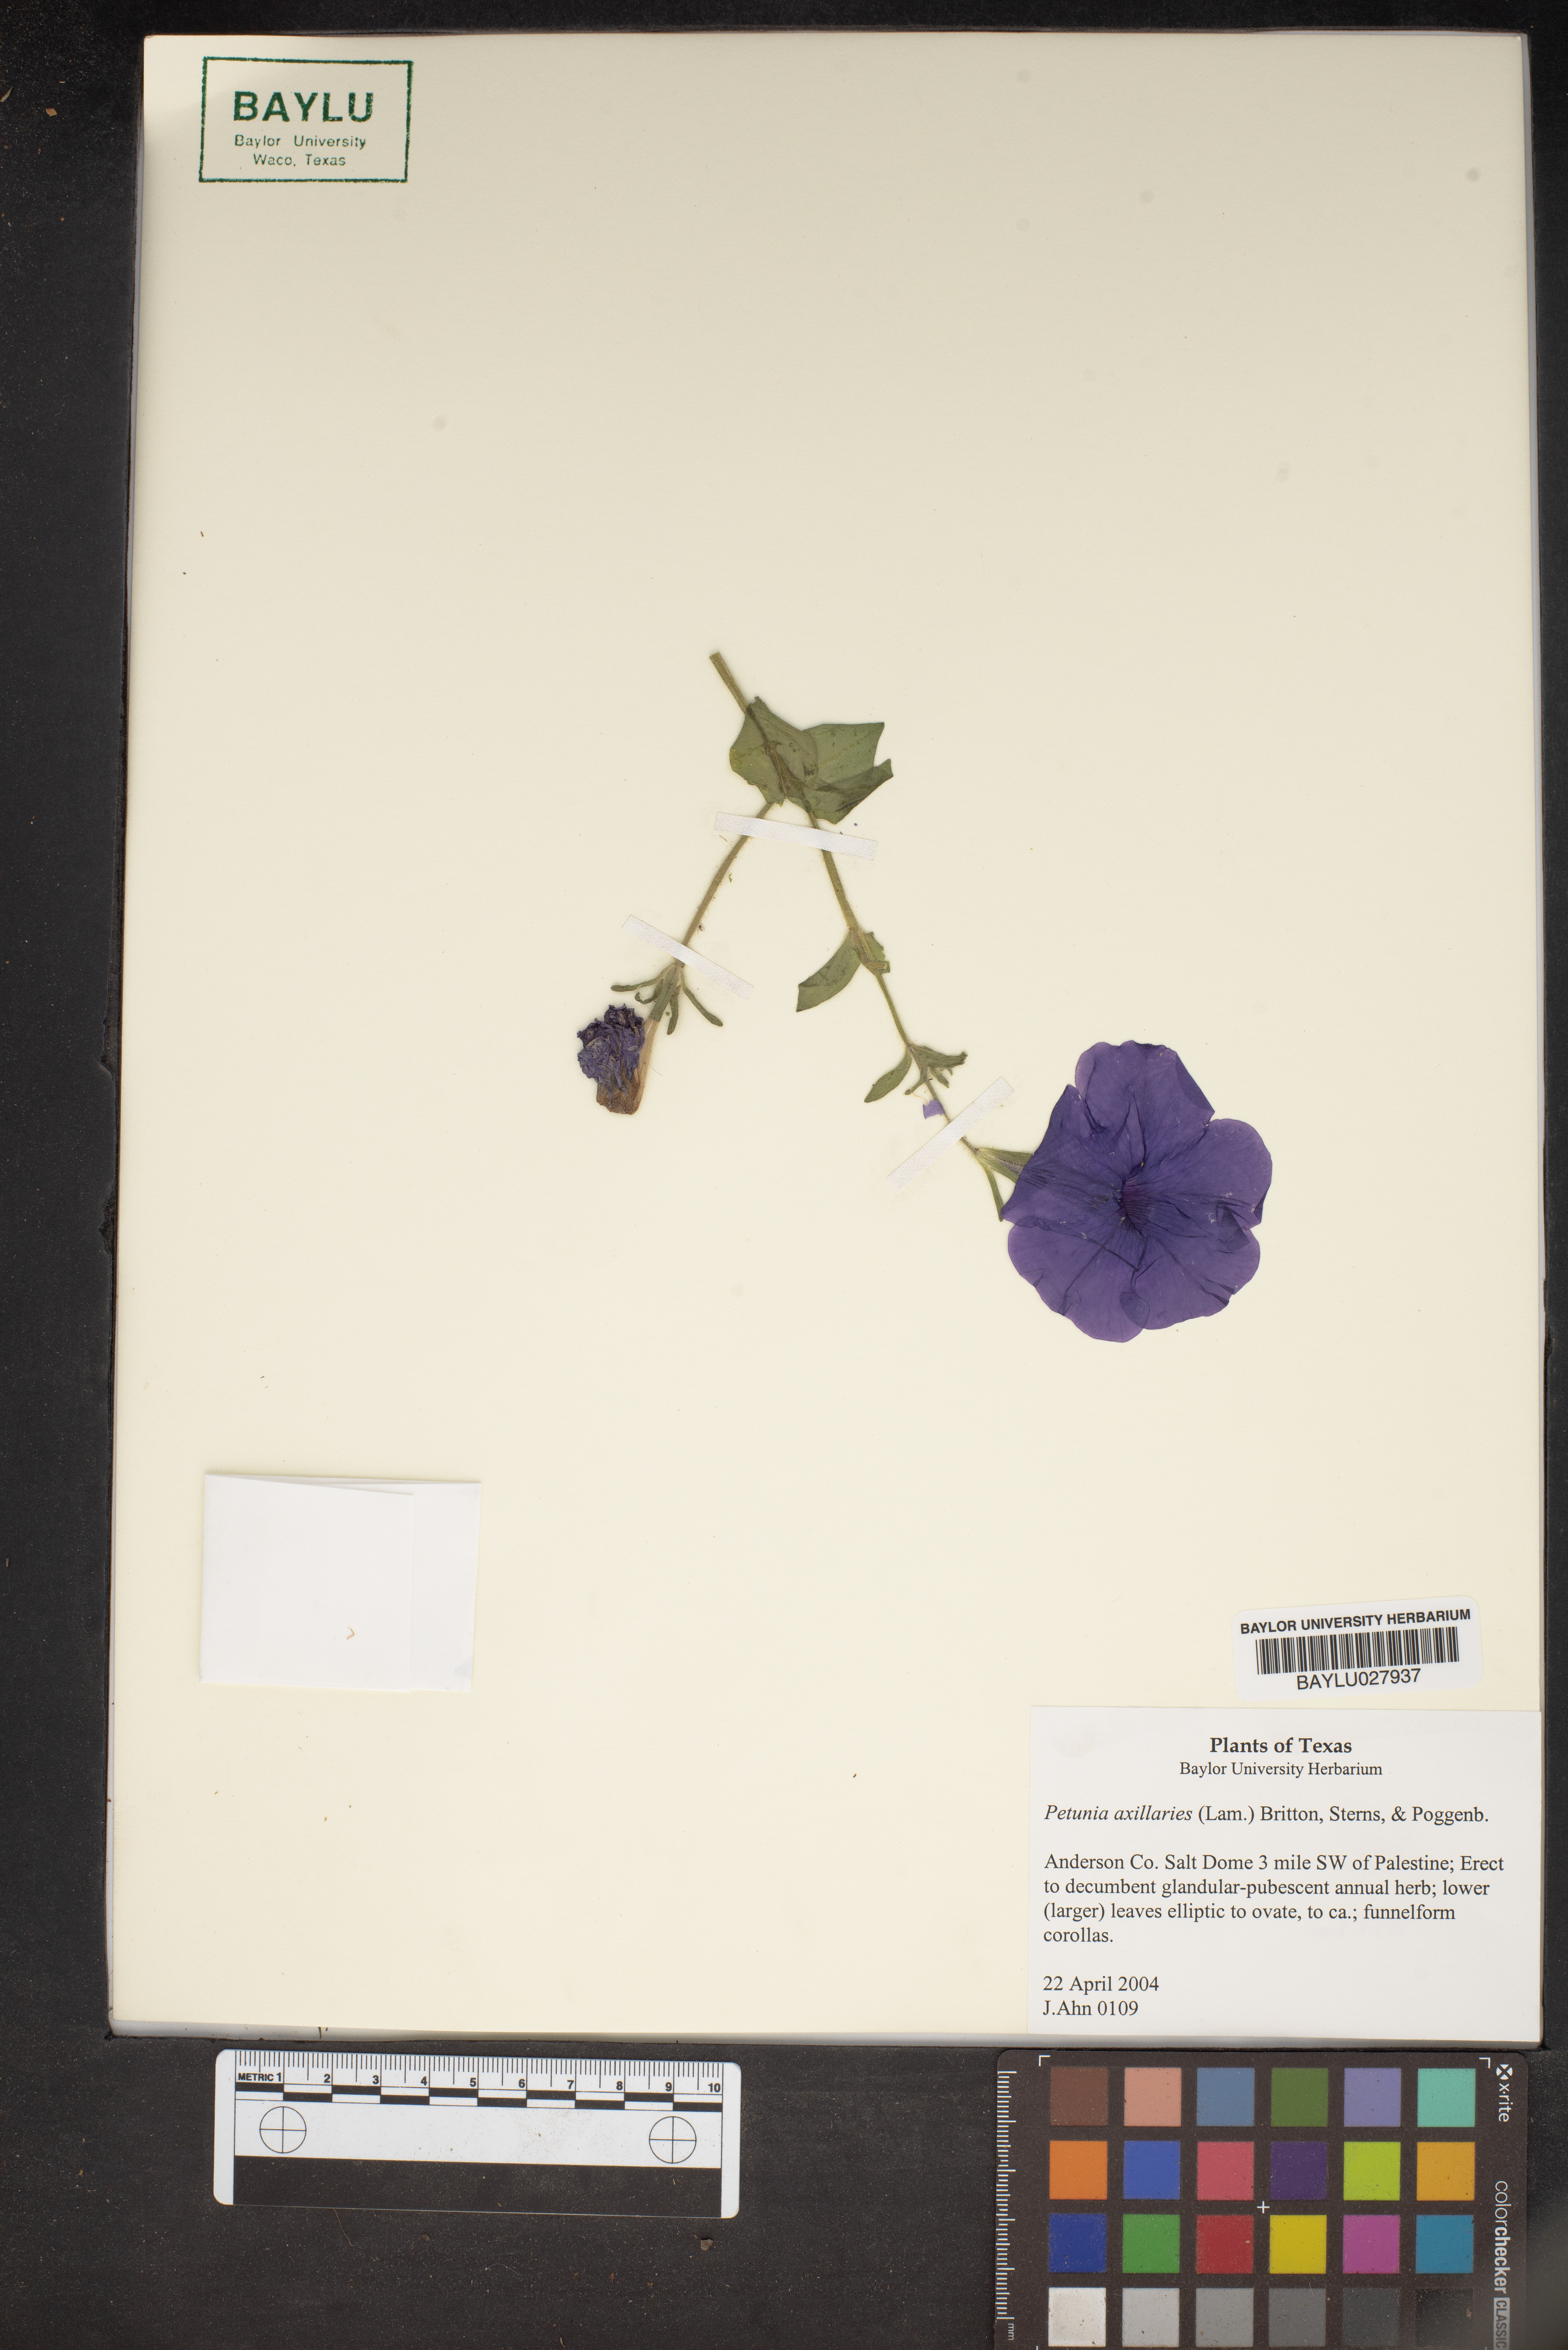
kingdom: Plantae
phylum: Tracheophyta
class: Magnoliopsida
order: Solanales
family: Solanaceae
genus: Petunia
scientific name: Petunia axillaris
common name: Large white petunia
